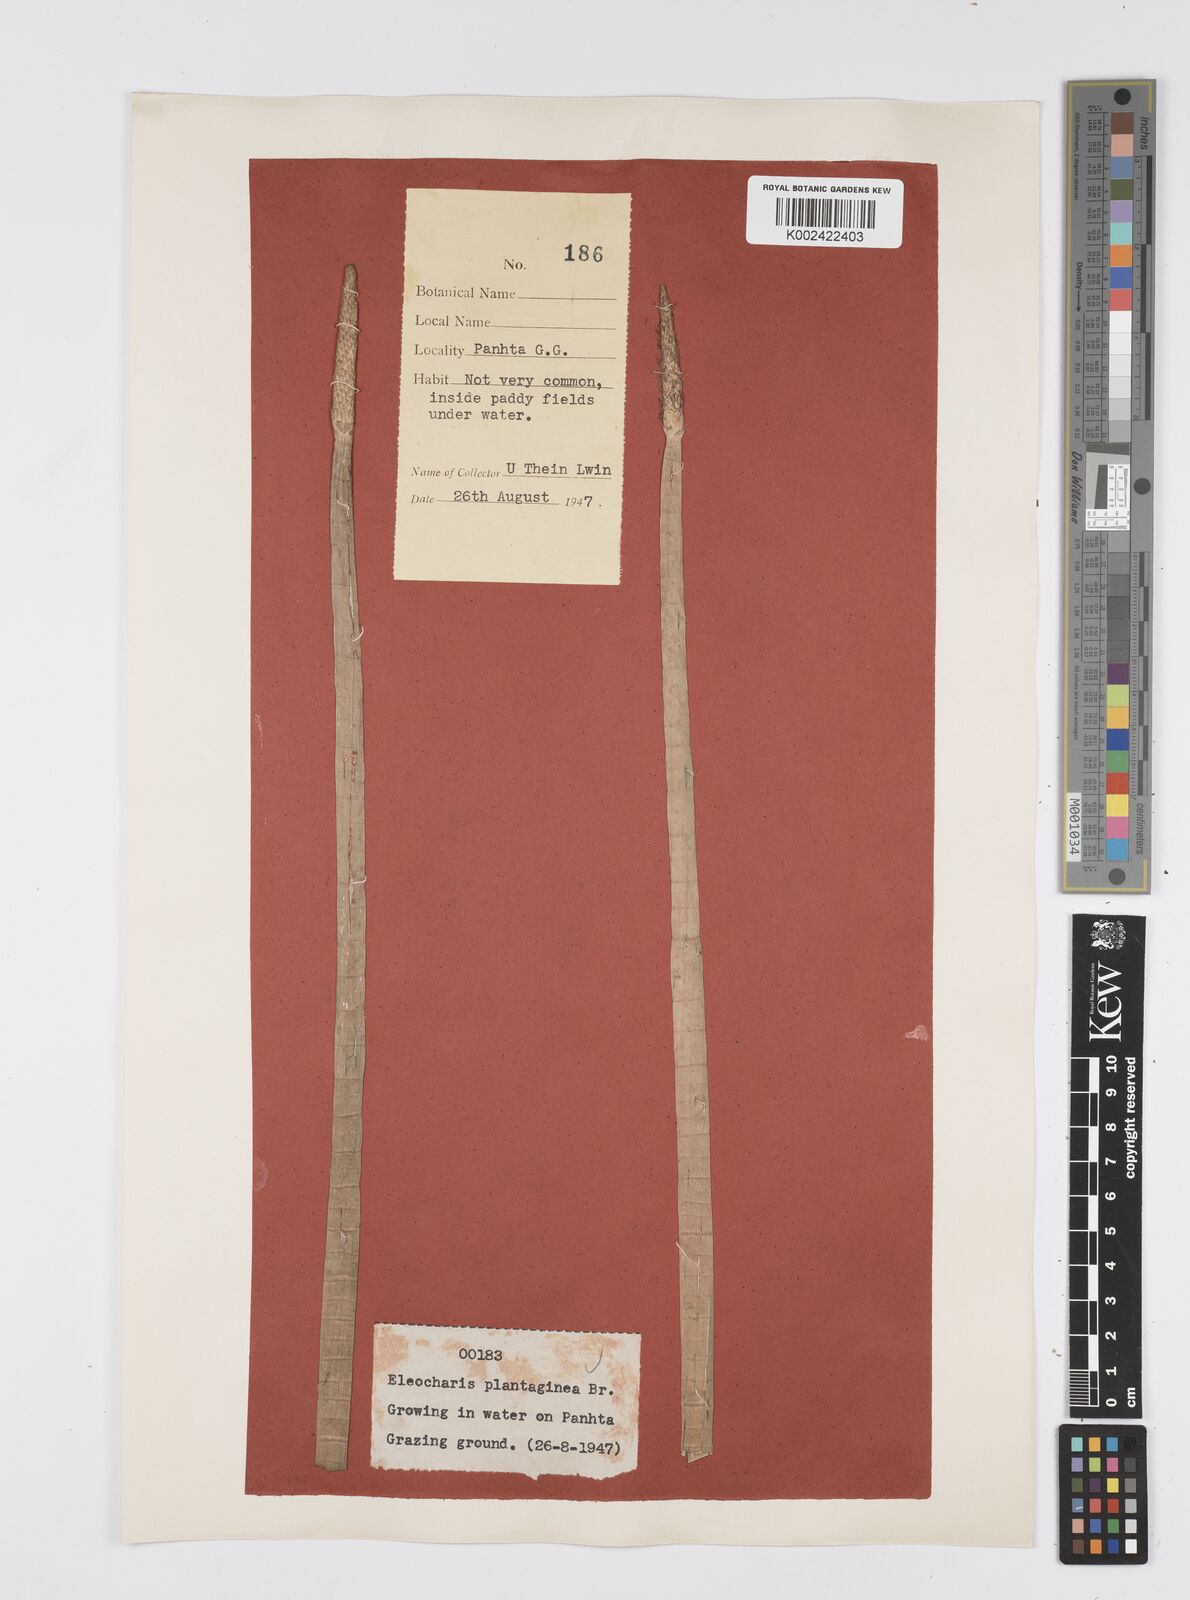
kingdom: Plantae
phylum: Tracheophyta
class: Liliopsida
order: Poales
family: Cyperaceae
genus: Eleocharis
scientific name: Eleocharis dulcis
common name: Chinese water chestnut
